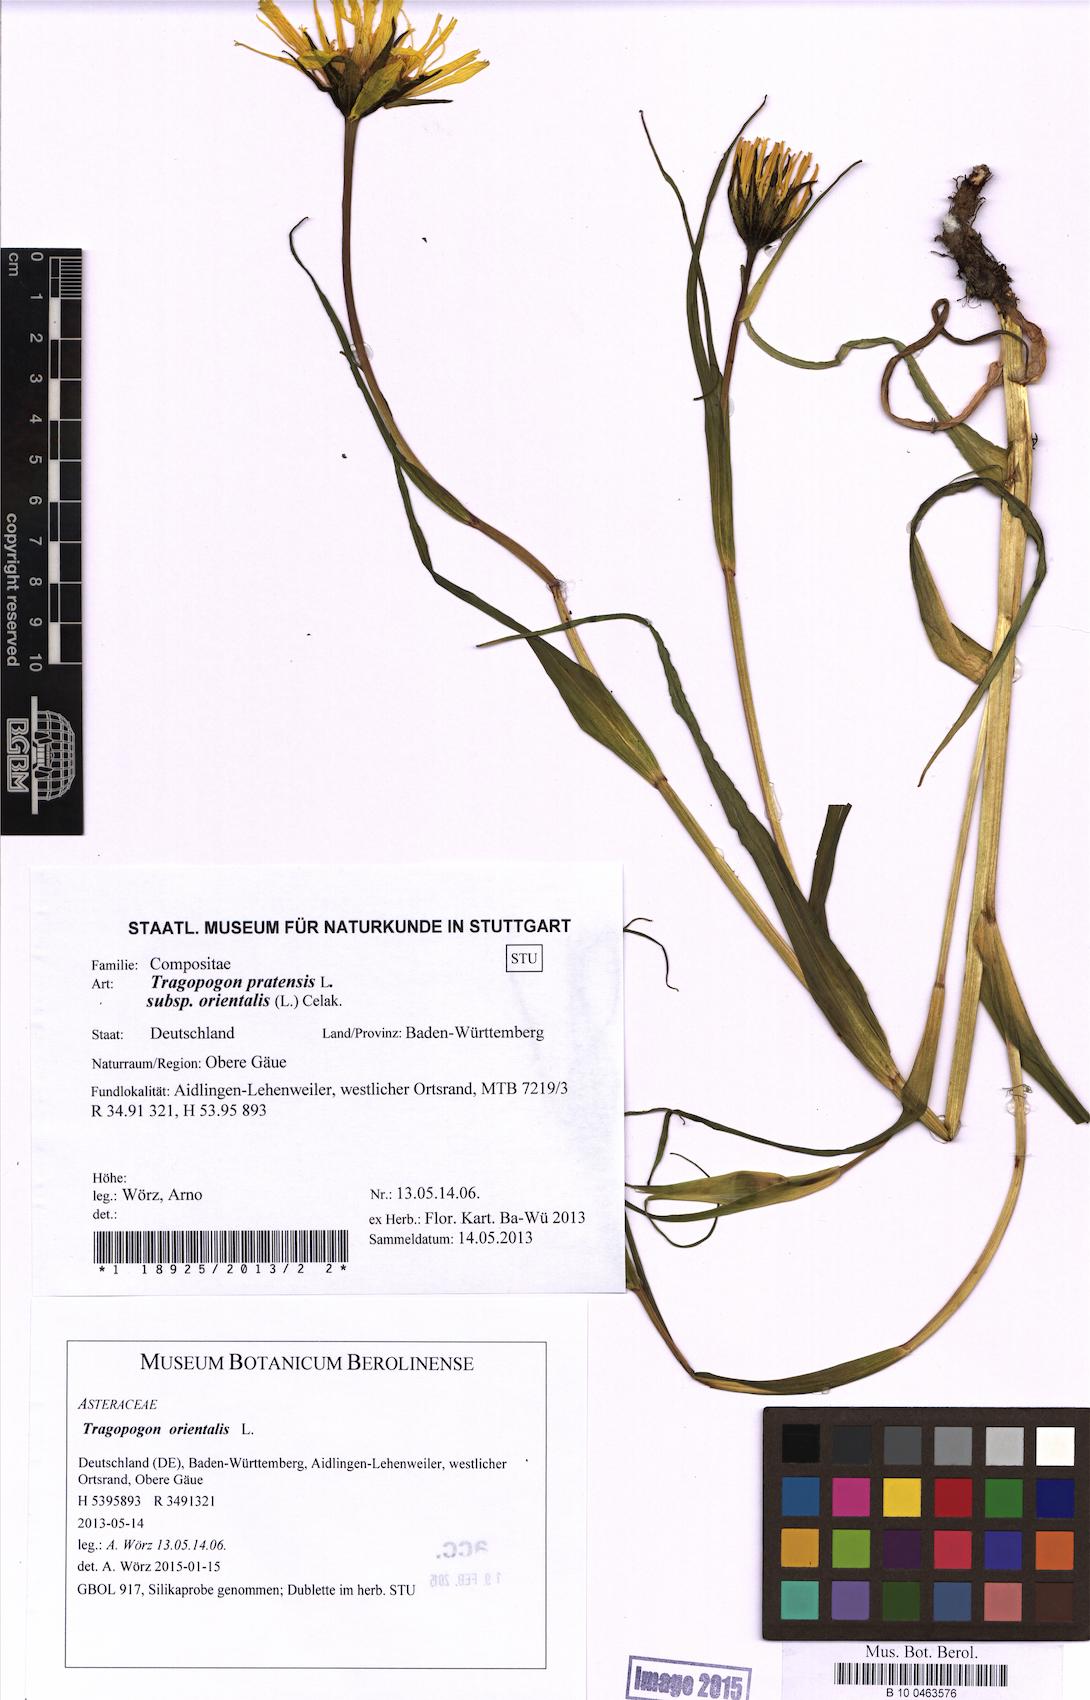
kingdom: Plantae
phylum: Tracheophyta
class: Magnoliopsida
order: Asterales
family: Asteraceae
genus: Tragopogon
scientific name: Tragopogon orientalis
